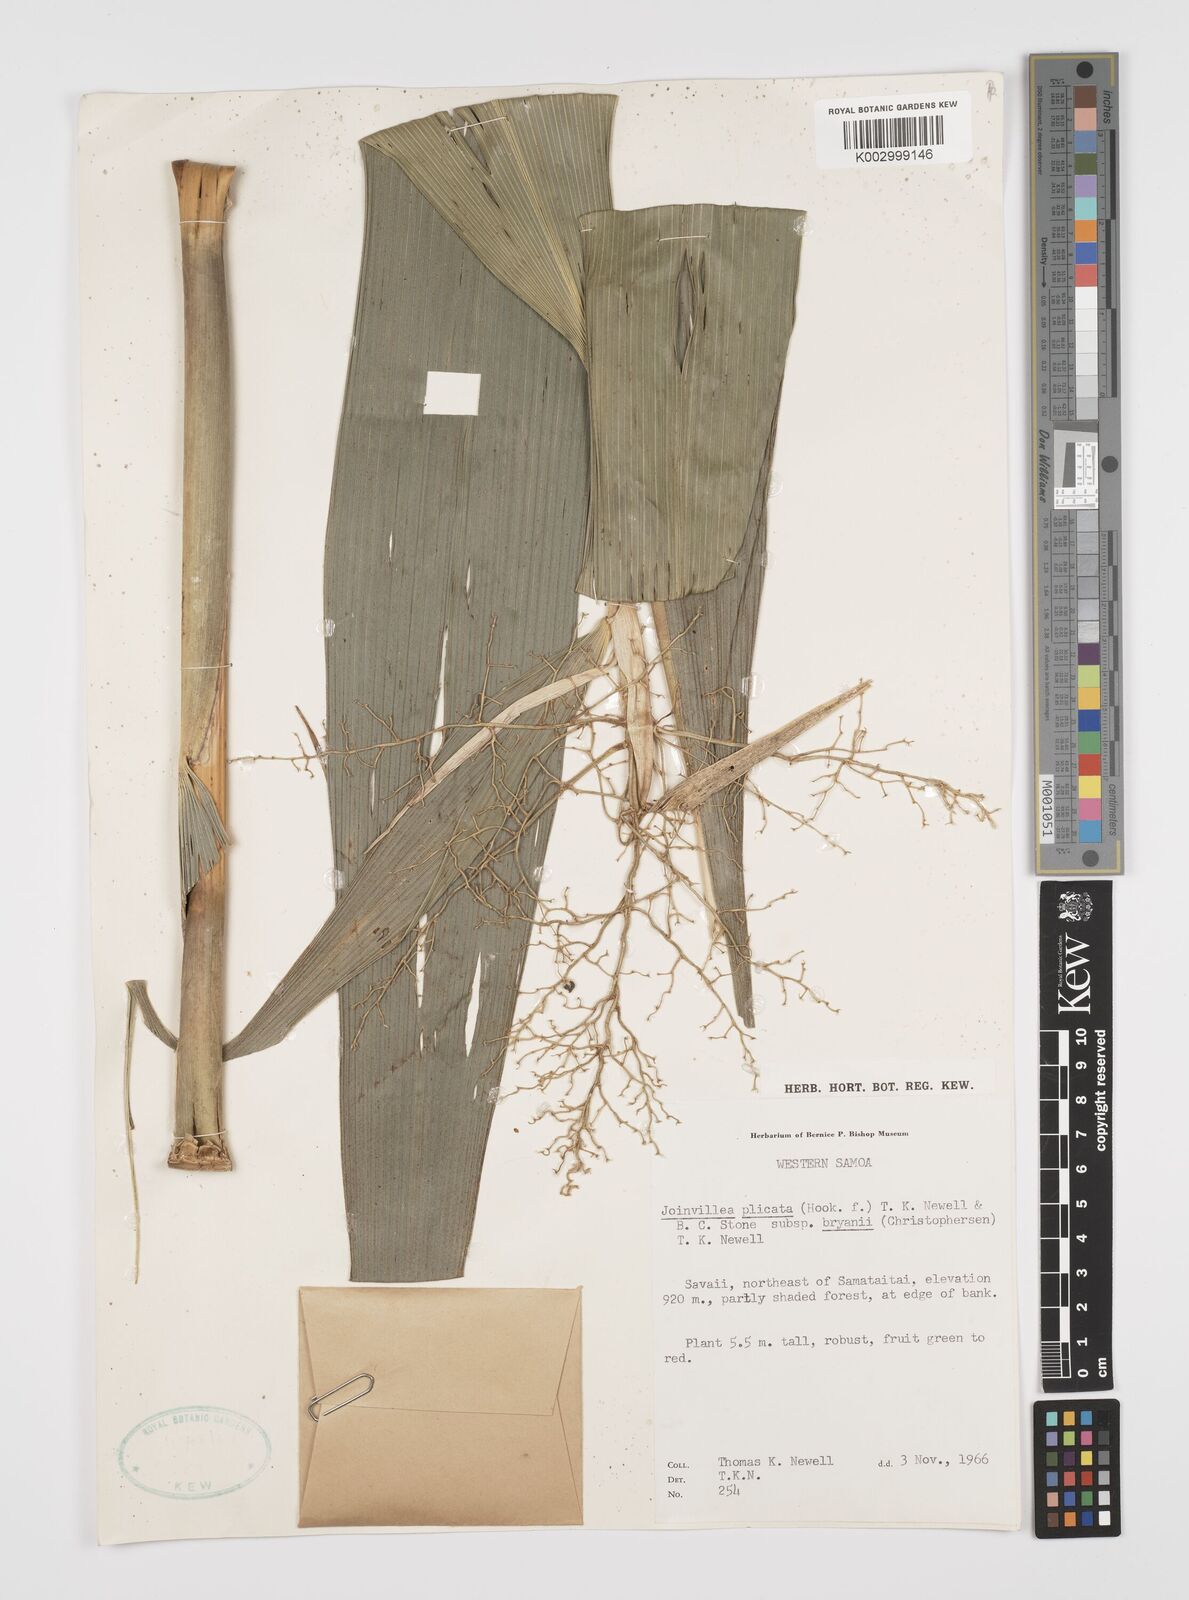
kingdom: Plantae
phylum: Tracheophyta
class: Liliopsida
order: Poales
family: Joinvilleaceae
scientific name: Joinvilleaceae
